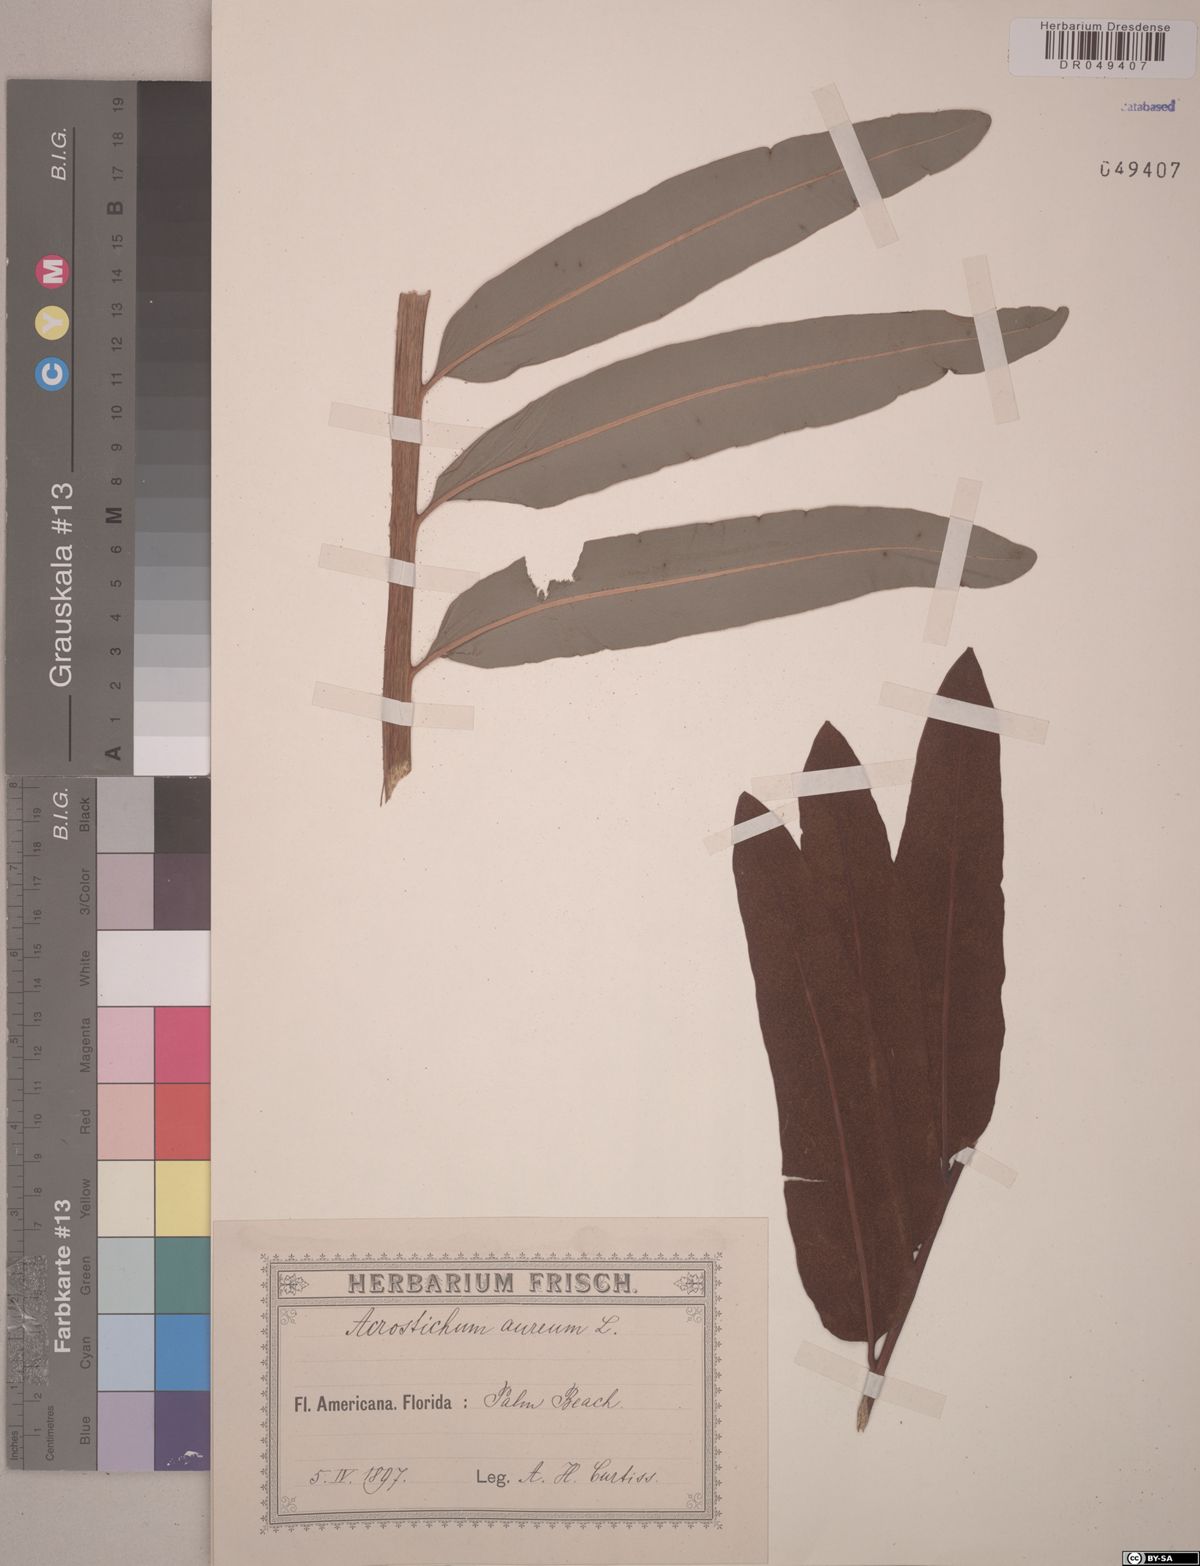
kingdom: Plantae
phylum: Tracheophyta
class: Polypodiopsida
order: Polypodiales
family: Pteridaceae
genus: Acrostichum
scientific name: Acrostichum aureum
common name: Leather fern
